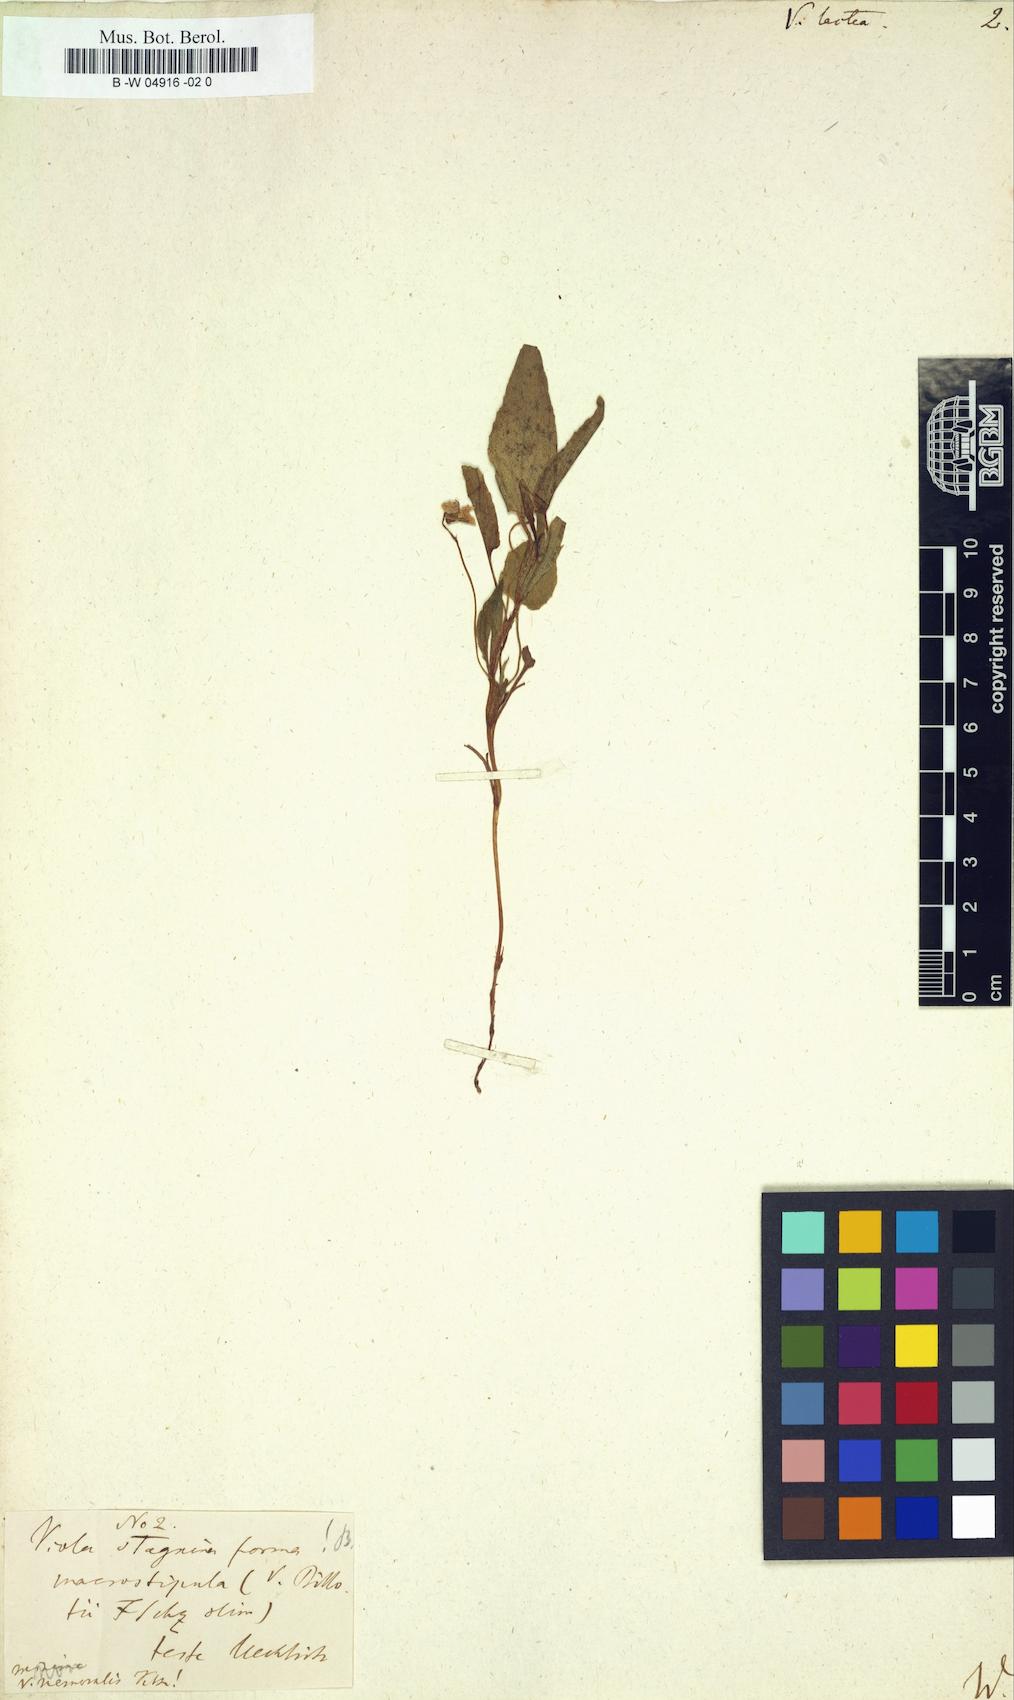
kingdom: Plantae
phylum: Tracheophyta
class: Magnoliopsida
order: Malpighiales
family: Violaceae
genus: Viola
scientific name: Viola lactea
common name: Pale dog-violet
